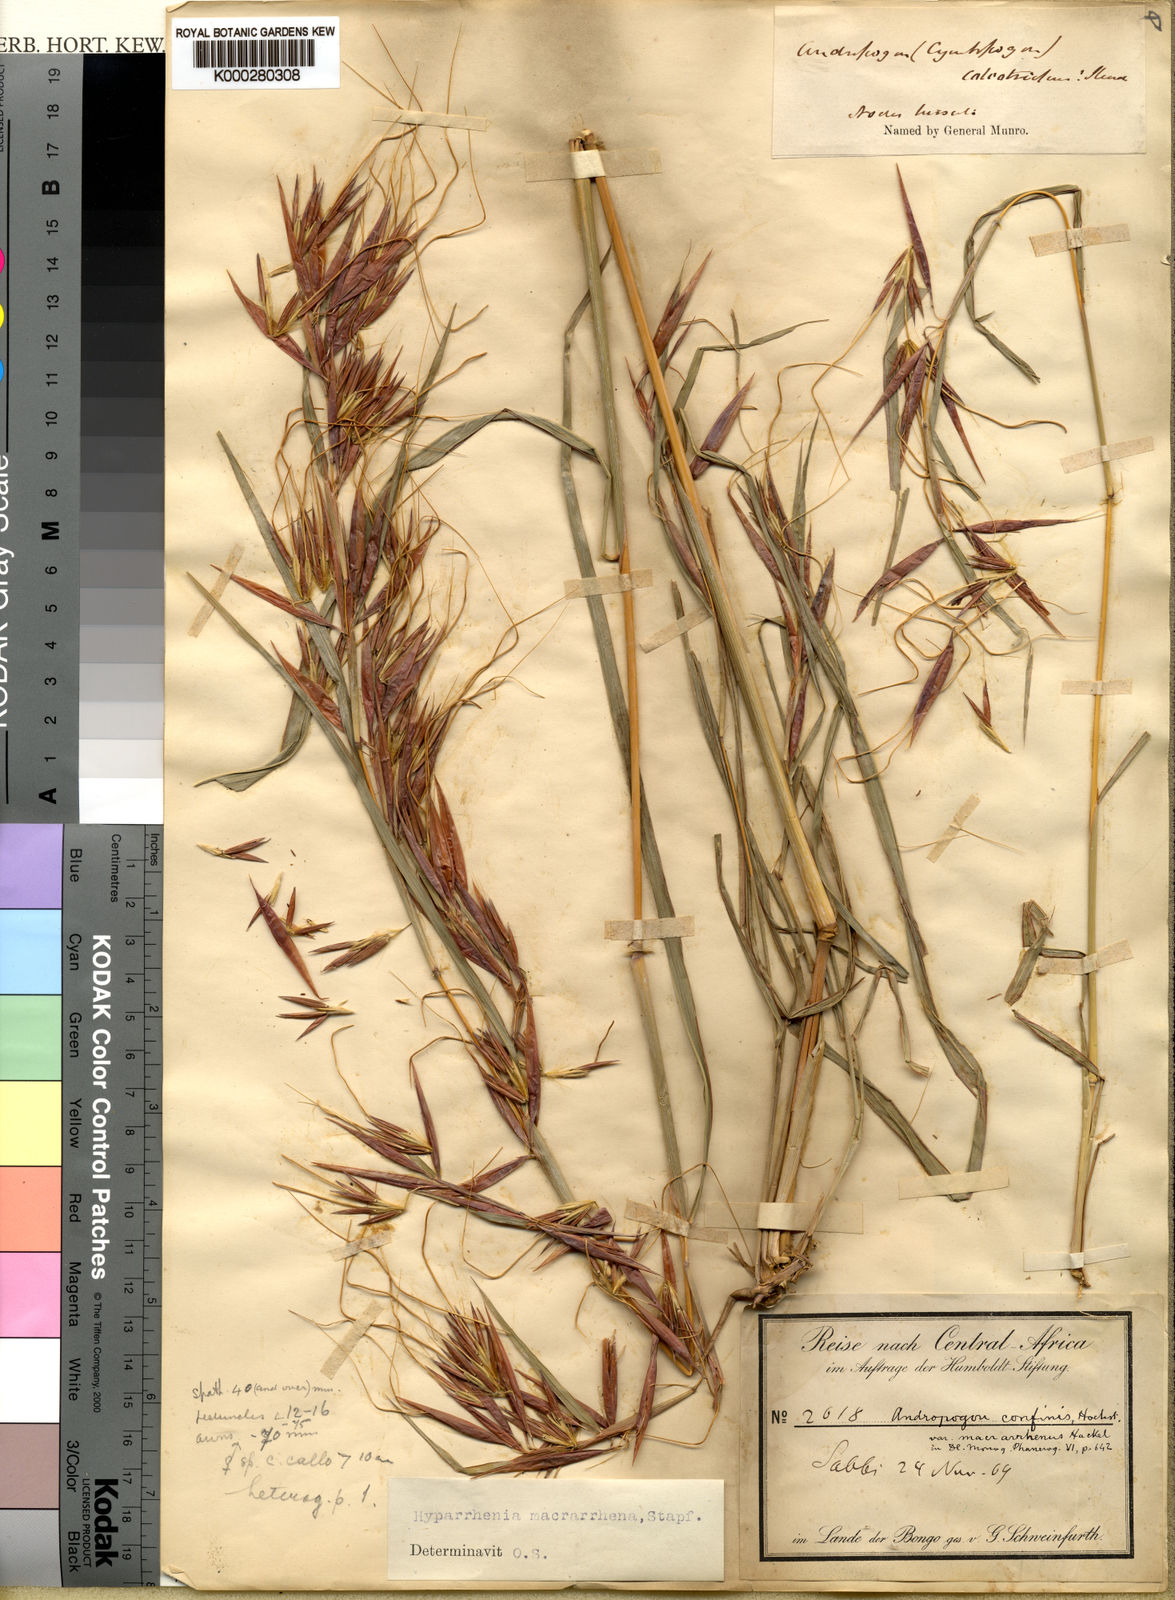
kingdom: Plantae
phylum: Tracheophyta
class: Liliopsida
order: Poales
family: Poaceae
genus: Hyparrhenia
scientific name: Hyparrhenia niariensis
